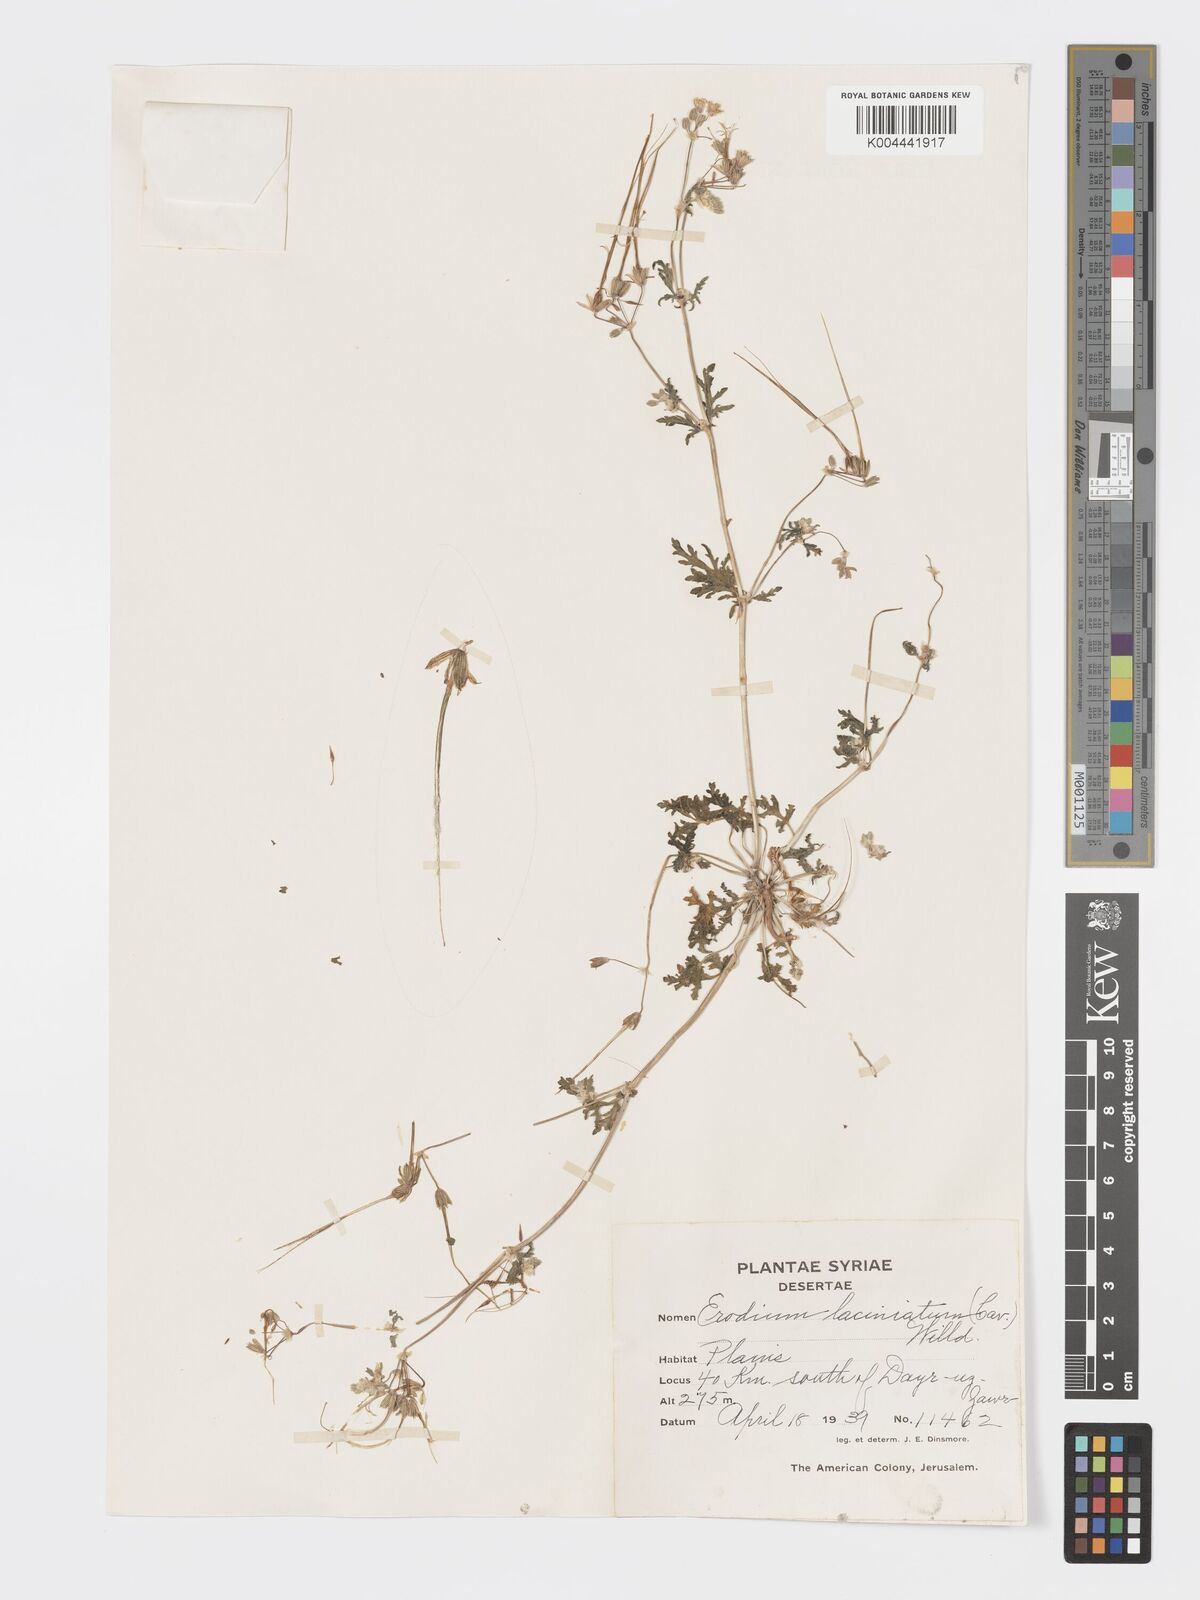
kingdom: Plantae
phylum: Tracheophyta
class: Magnoliopsida
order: Geraniales
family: Geraniaceae
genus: Erodium
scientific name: Erodium laciniatum
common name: Cutleaf stork's bill
